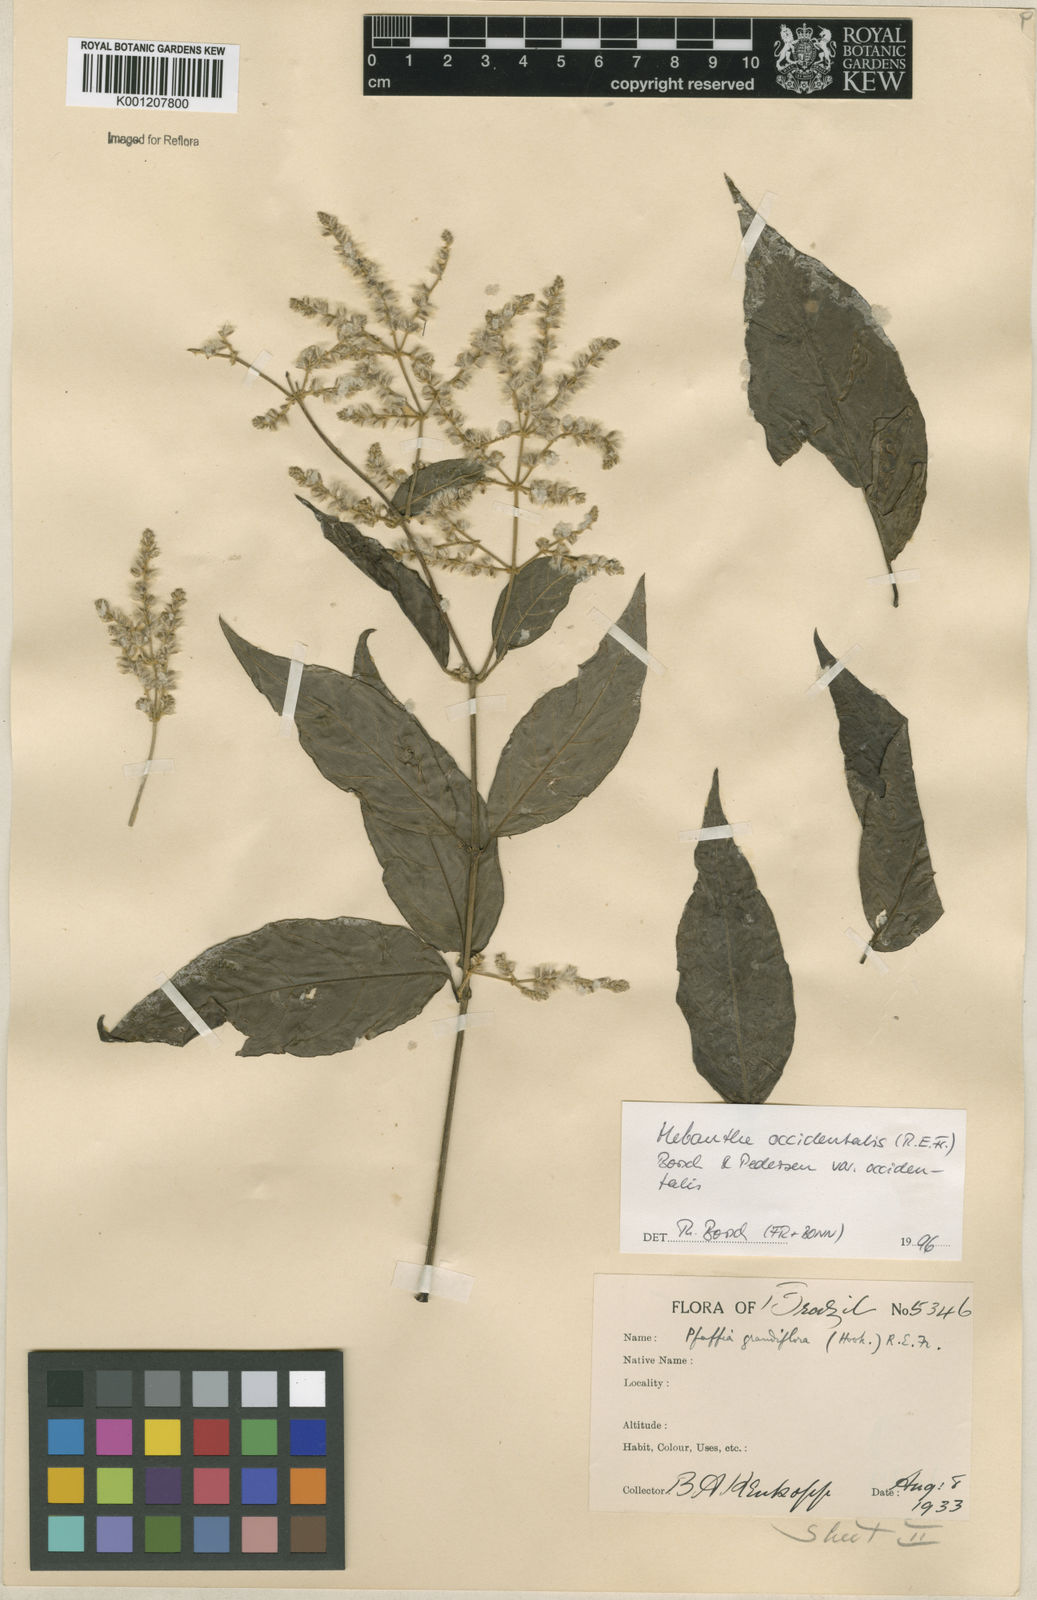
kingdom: Plantae
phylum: Tracheophyta
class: Magnoliopsida
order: Caryophyllales
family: Amaranthaceae
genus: Hebanthe
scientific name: Hebanthe occidentalis
